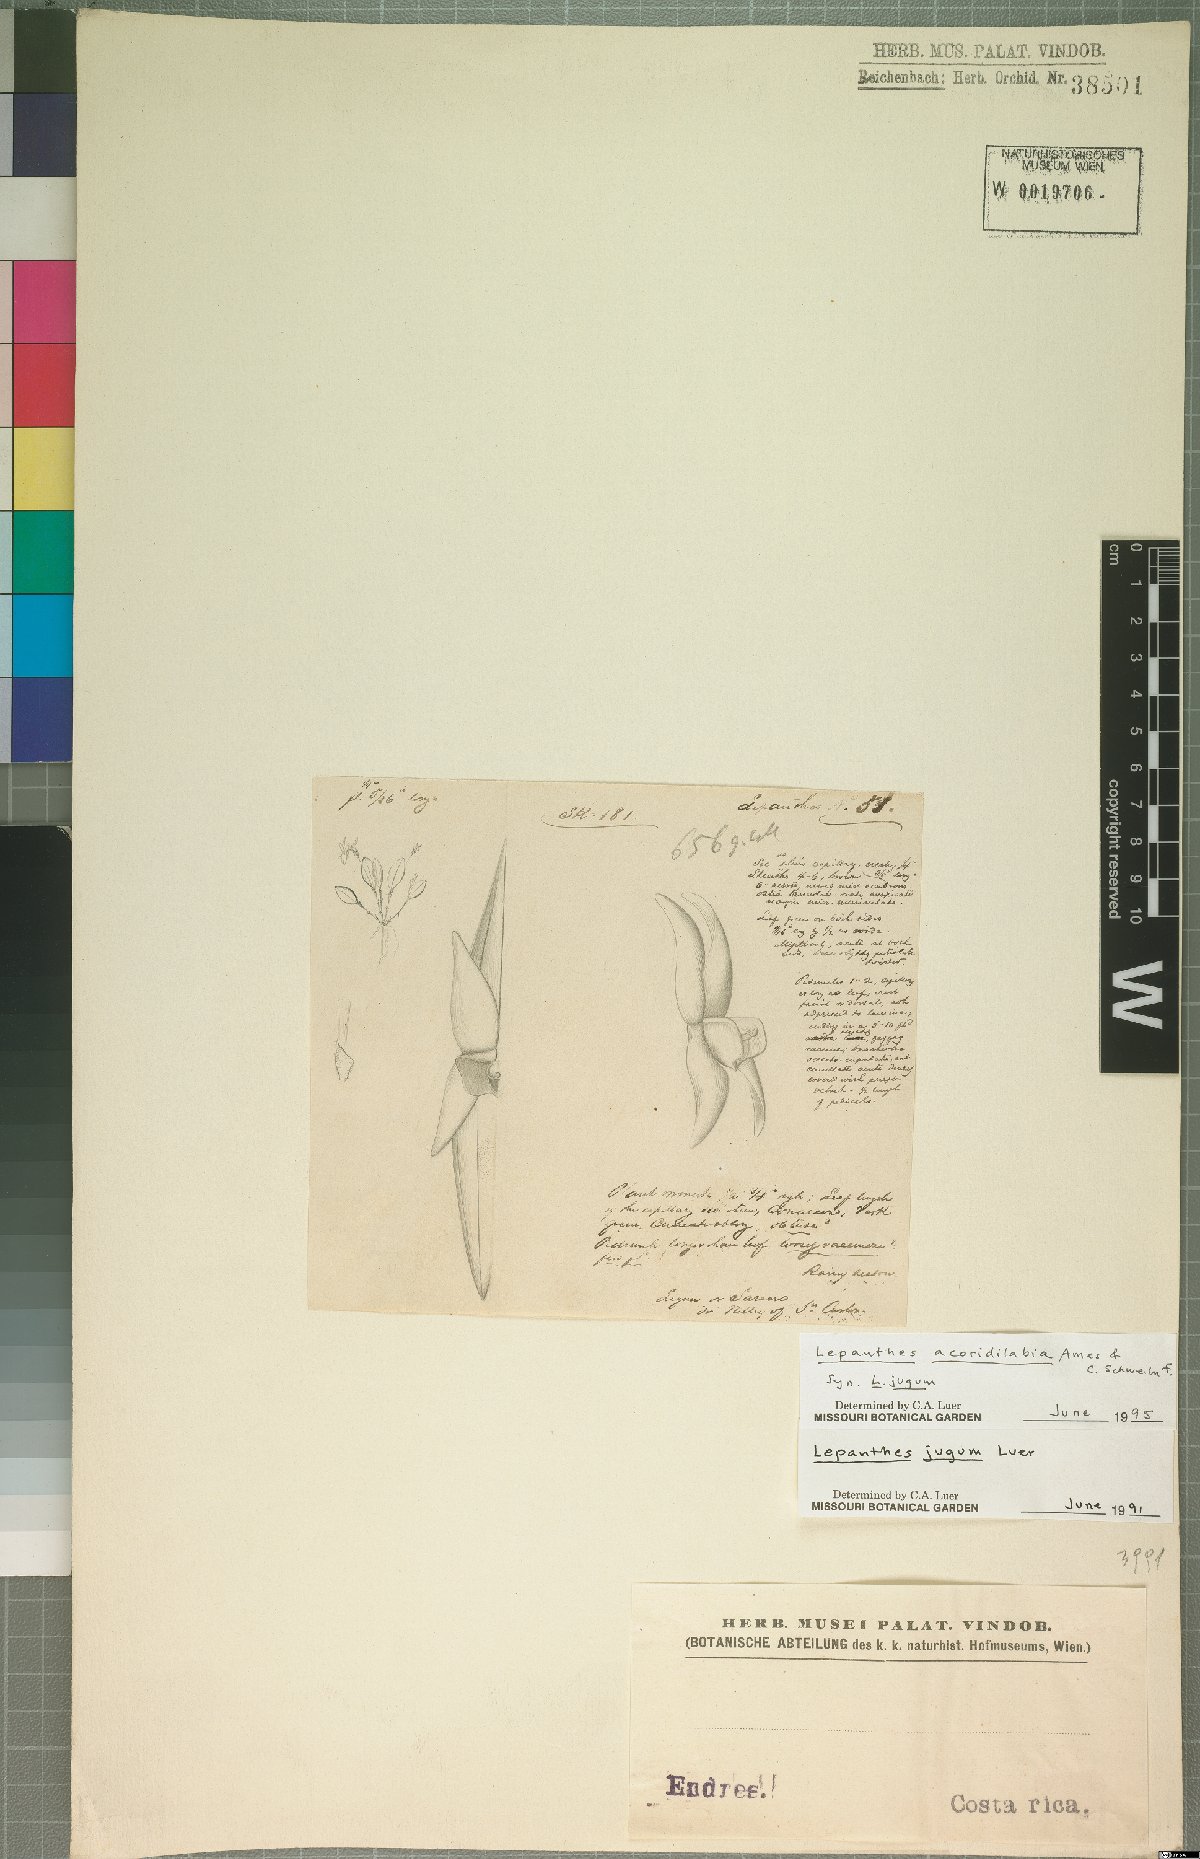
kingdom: Plantae
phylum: Tracheophyta
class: Liliopsida
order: Asparagales
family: Orchidaceae
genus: Lepanthes
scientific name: Lepanthes acoridilabia
